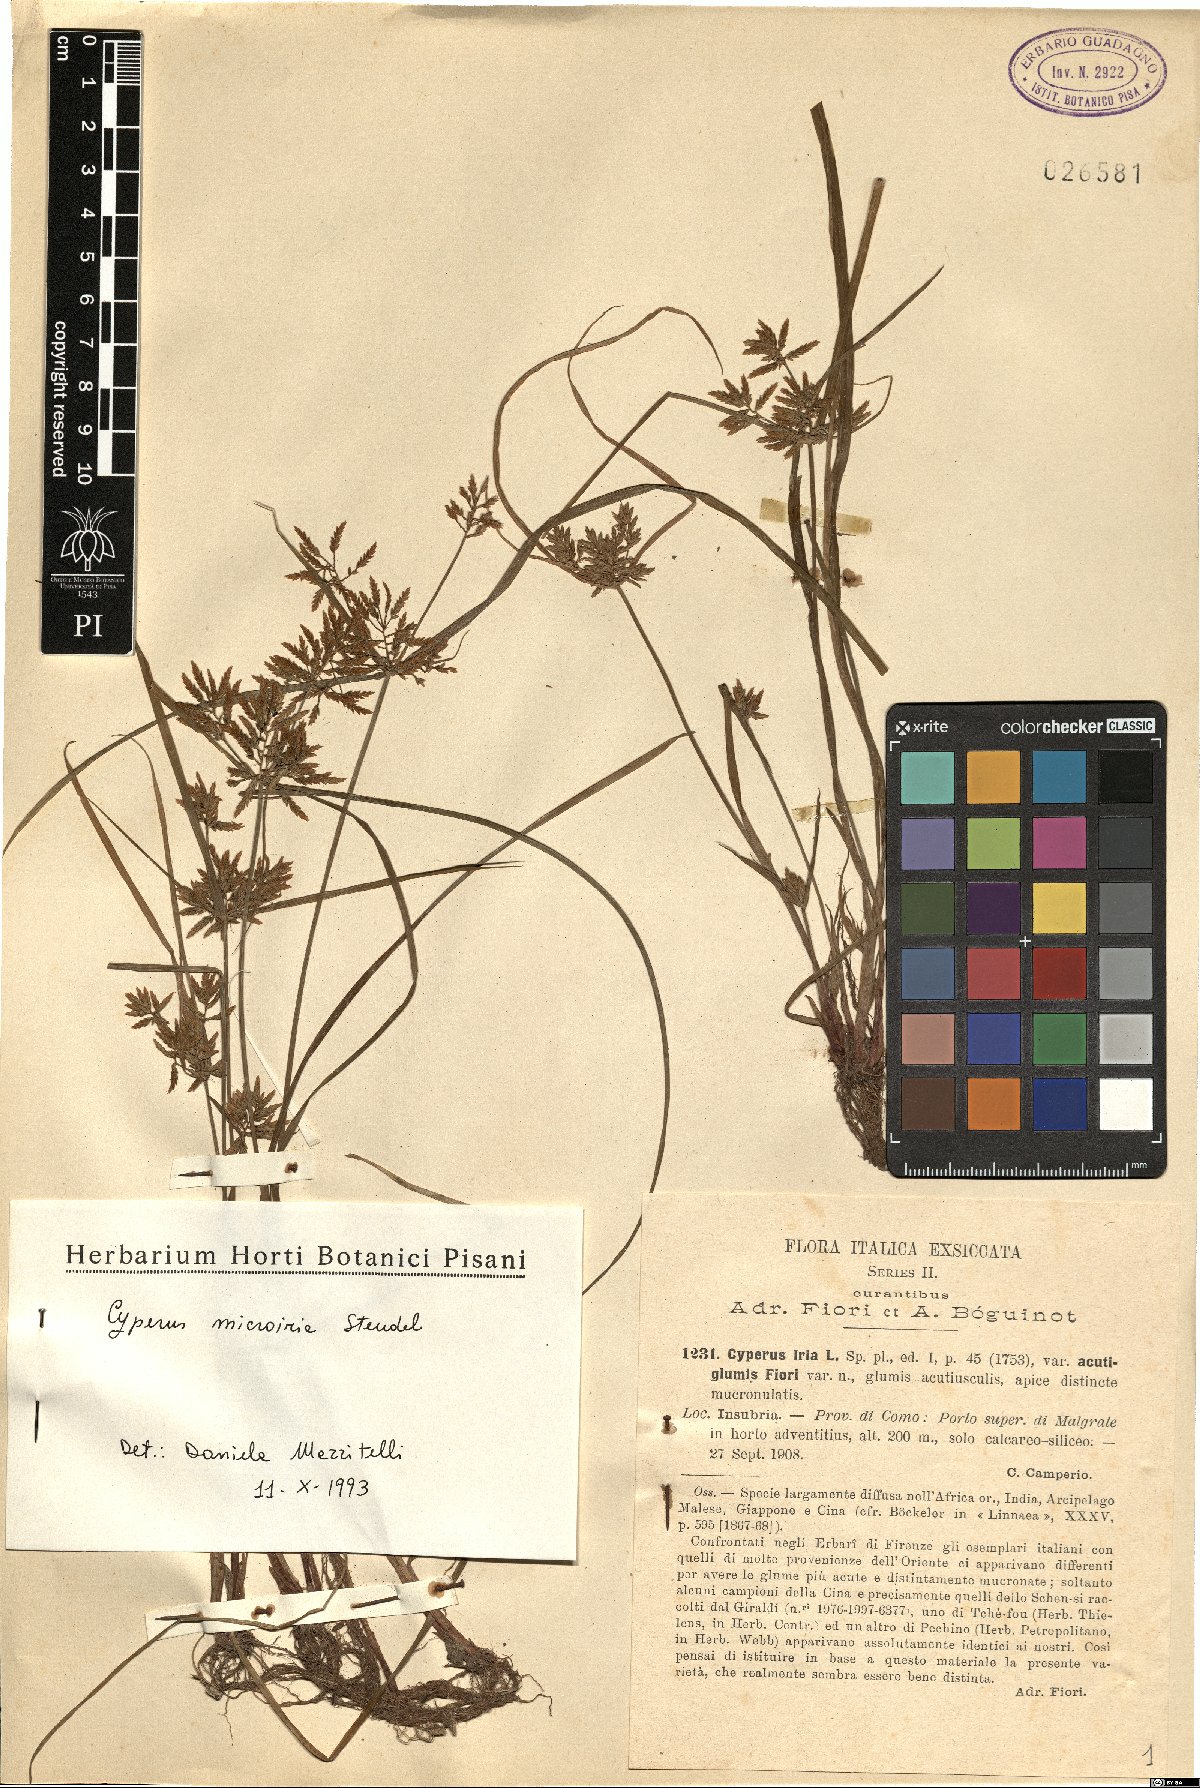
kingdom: Plantae
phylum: Tracheophyta
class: Liliopsida
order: Poales
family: Cyperaceae
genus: Cyperus
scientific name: Cyperus microiria
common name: Asian flatsedge
